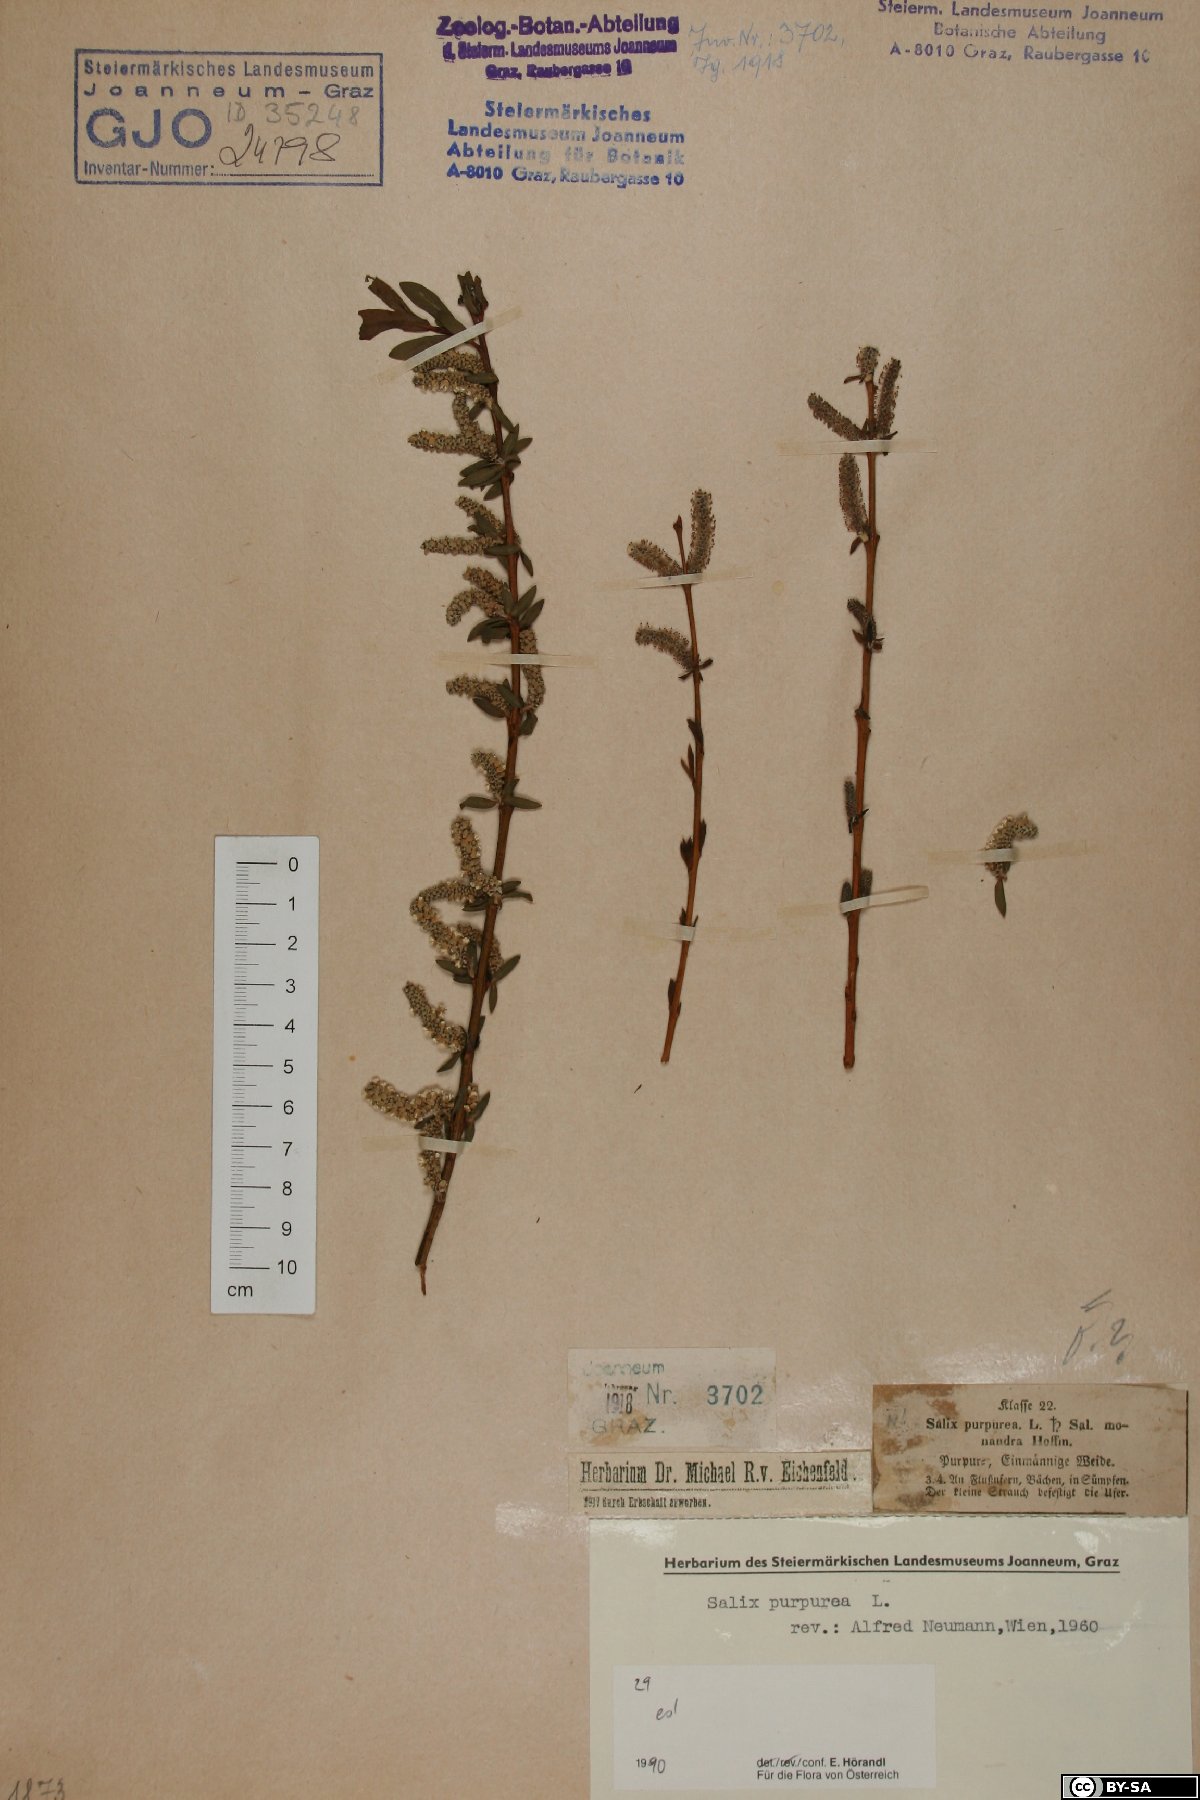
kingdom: Plantae
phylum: Tracheophyta
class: Magnoliopsida
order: Malpighiales
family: Salicaceae
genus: Salix
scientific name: Salix purpurea
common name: Purple willow
